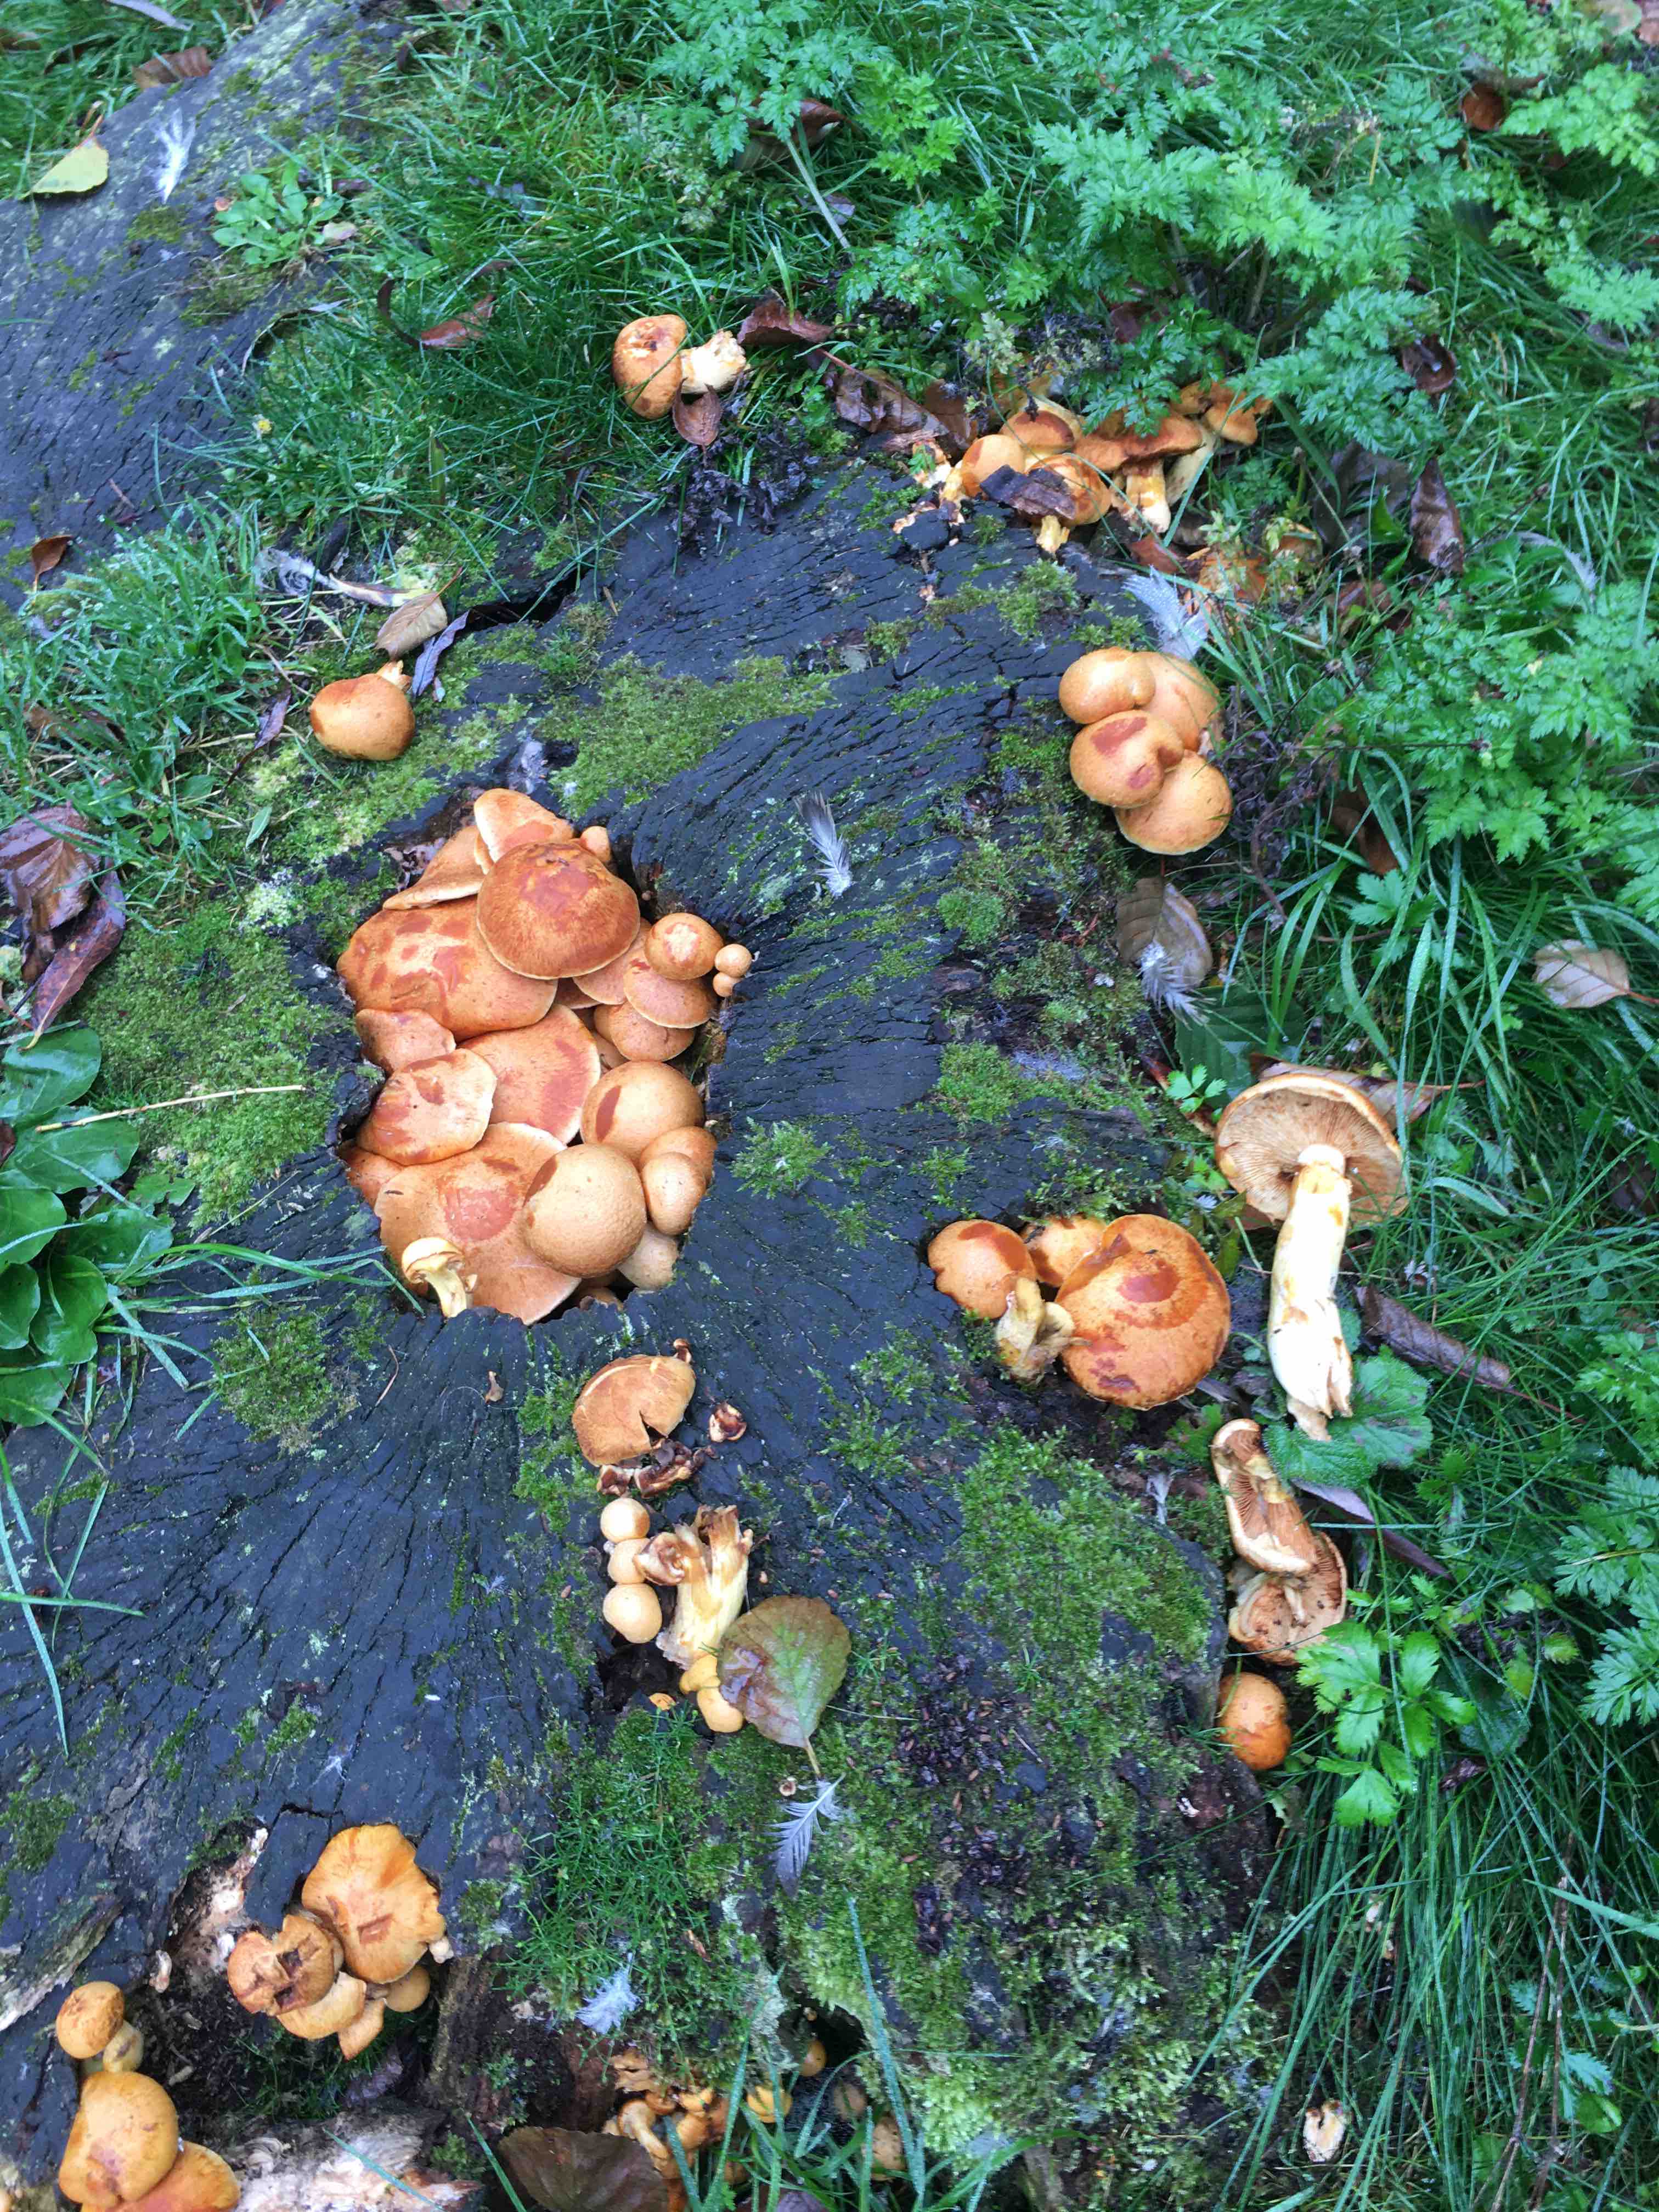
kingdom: Fungi
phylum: Basidiomycota
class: Agaricomycetes
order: Agaricales
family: Hymenogastraceae
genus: Gymnopilus
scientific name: Gymnopilus spectabilis
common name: fibret flammehat
